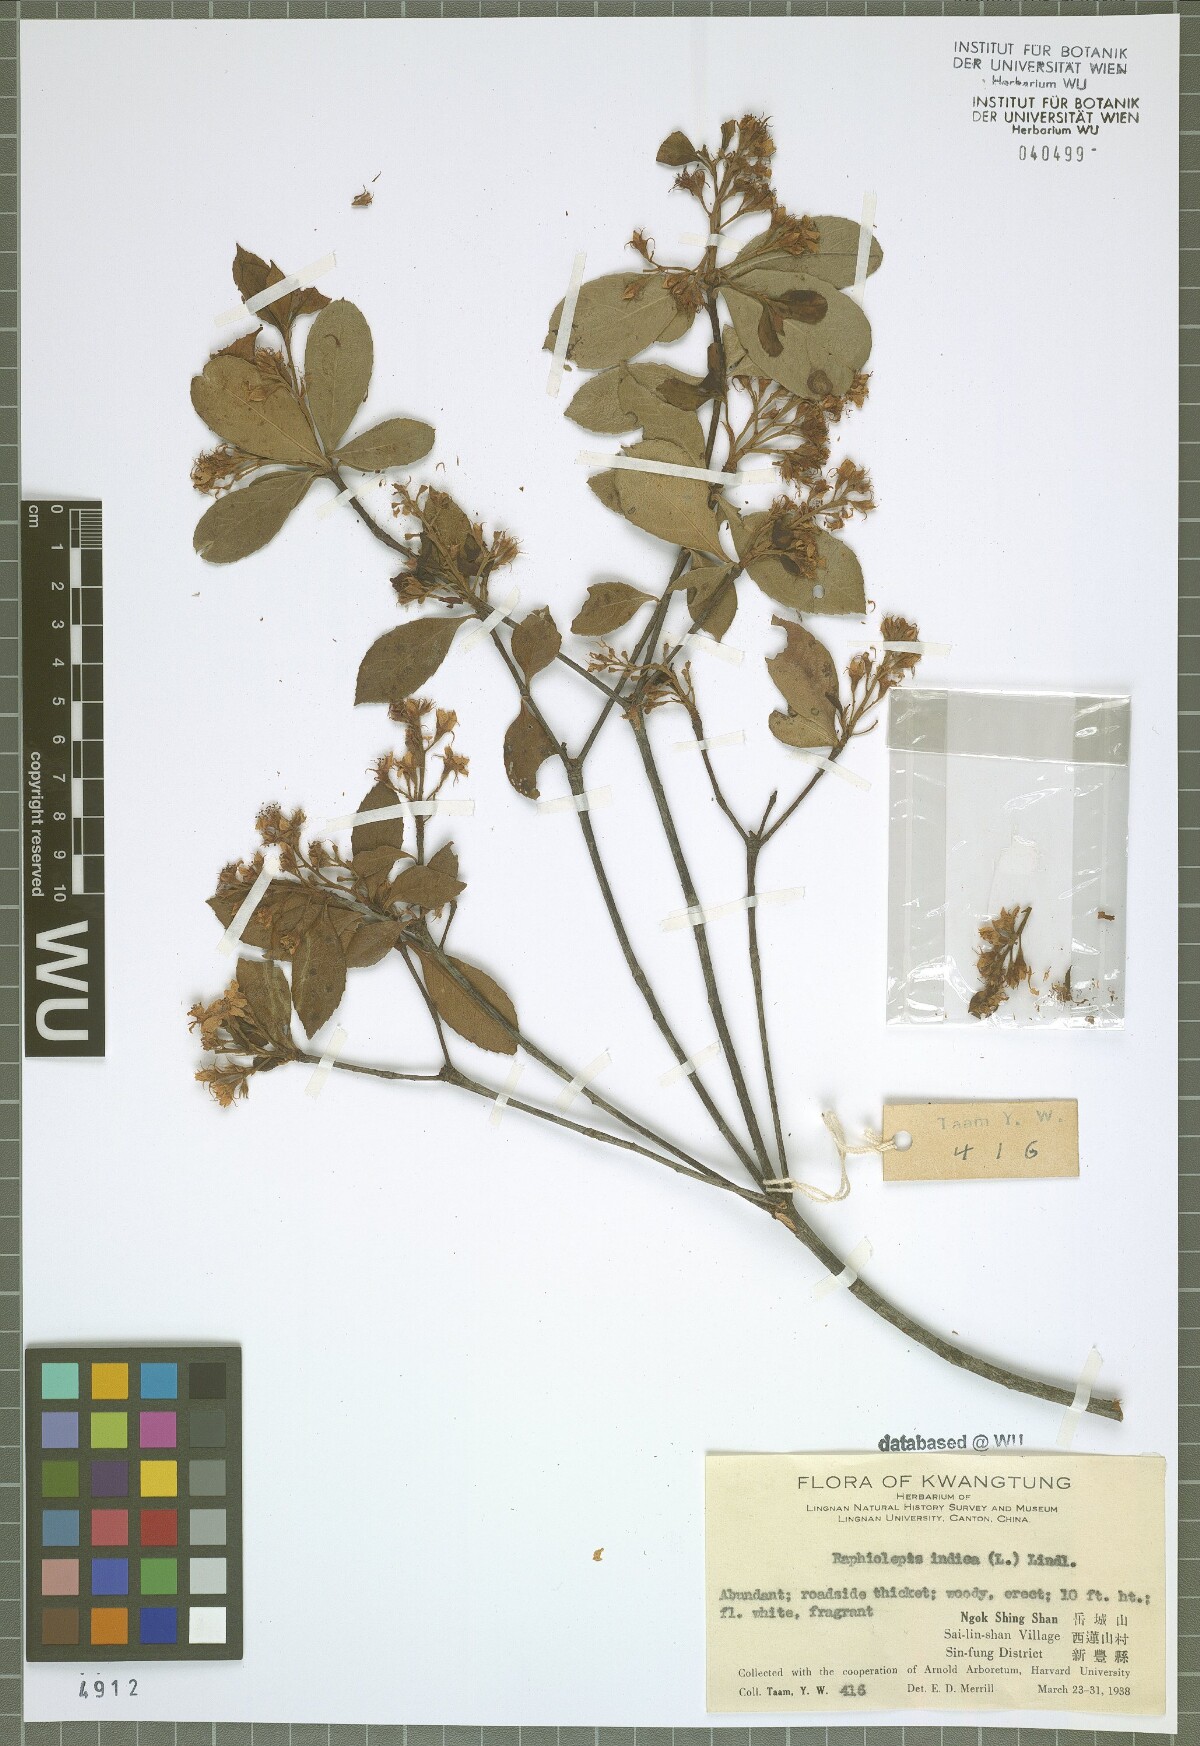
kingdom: Plantae
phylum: Tracheophyta
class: Magnoliopsida
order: Rosales
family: Rosaceae
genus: Rhaphiolepis
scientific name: Rhaphiolepis indica
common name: India-hawthorn
